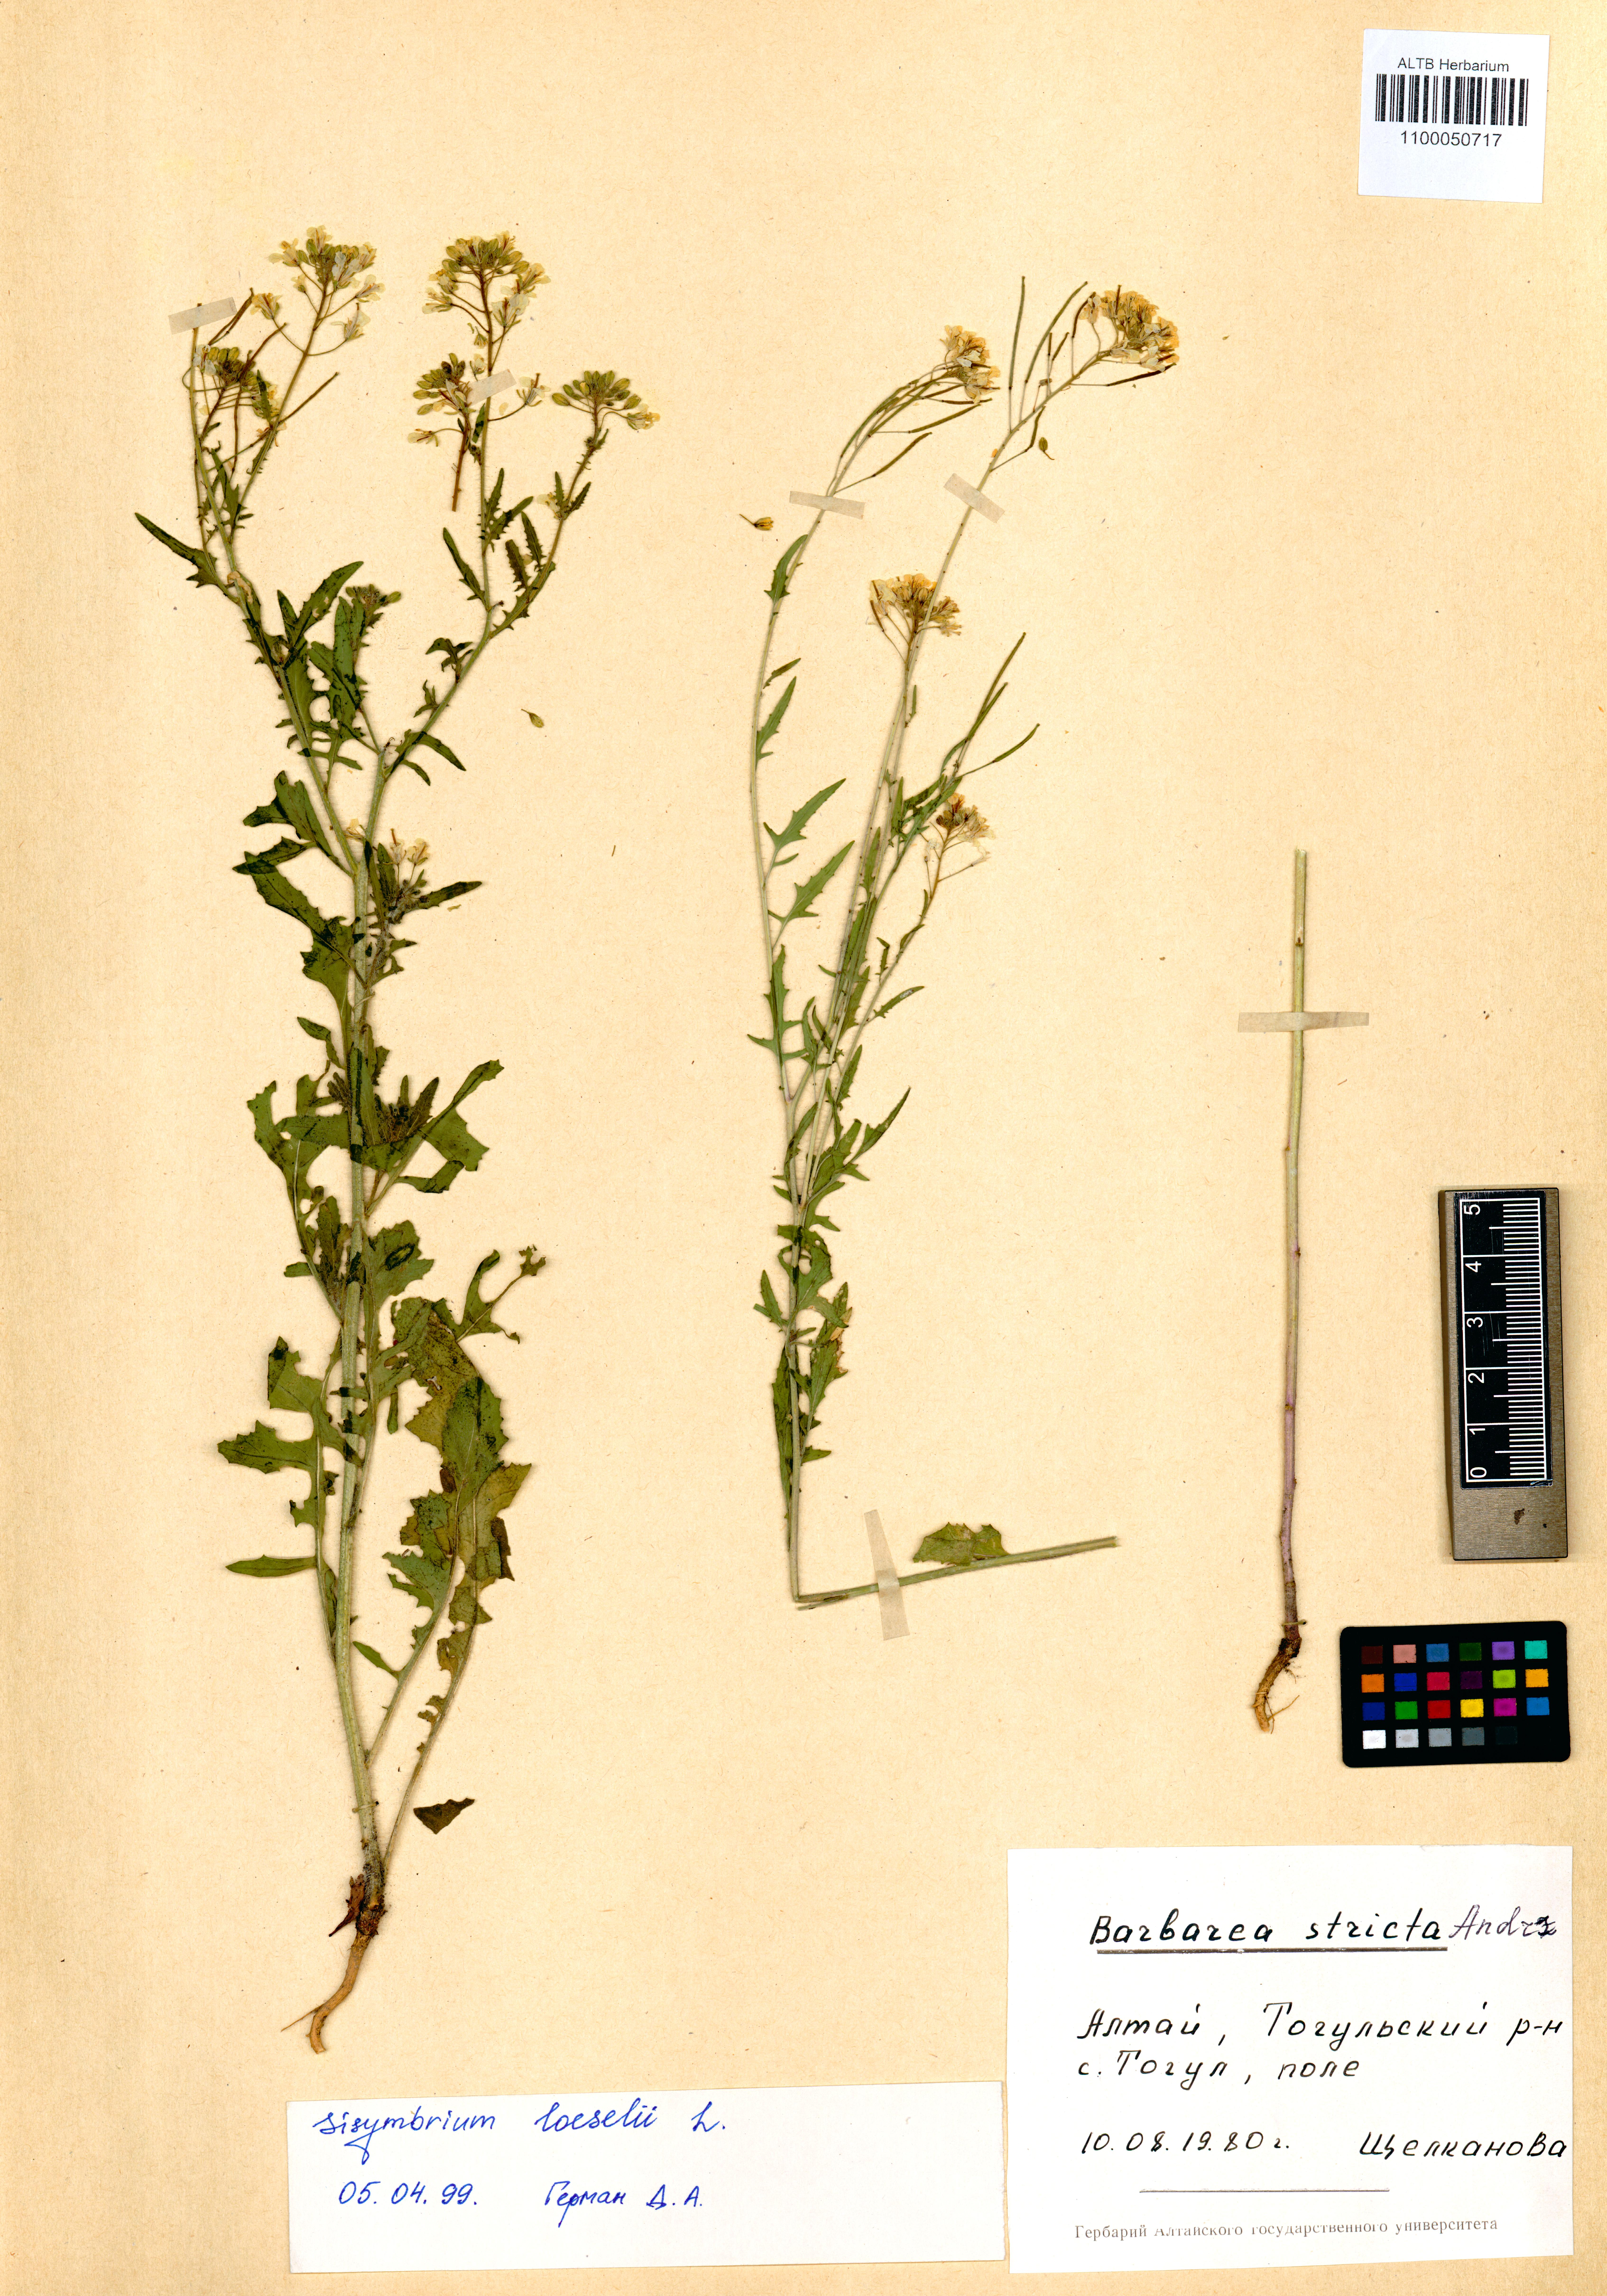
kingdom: Plantae
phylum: Tracheophyta
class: Magnoliopsida
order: Brassicales
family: Brassicaceae
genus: Sisymbrium
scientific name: Sisymbrium loeselii
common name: False london-rocket
